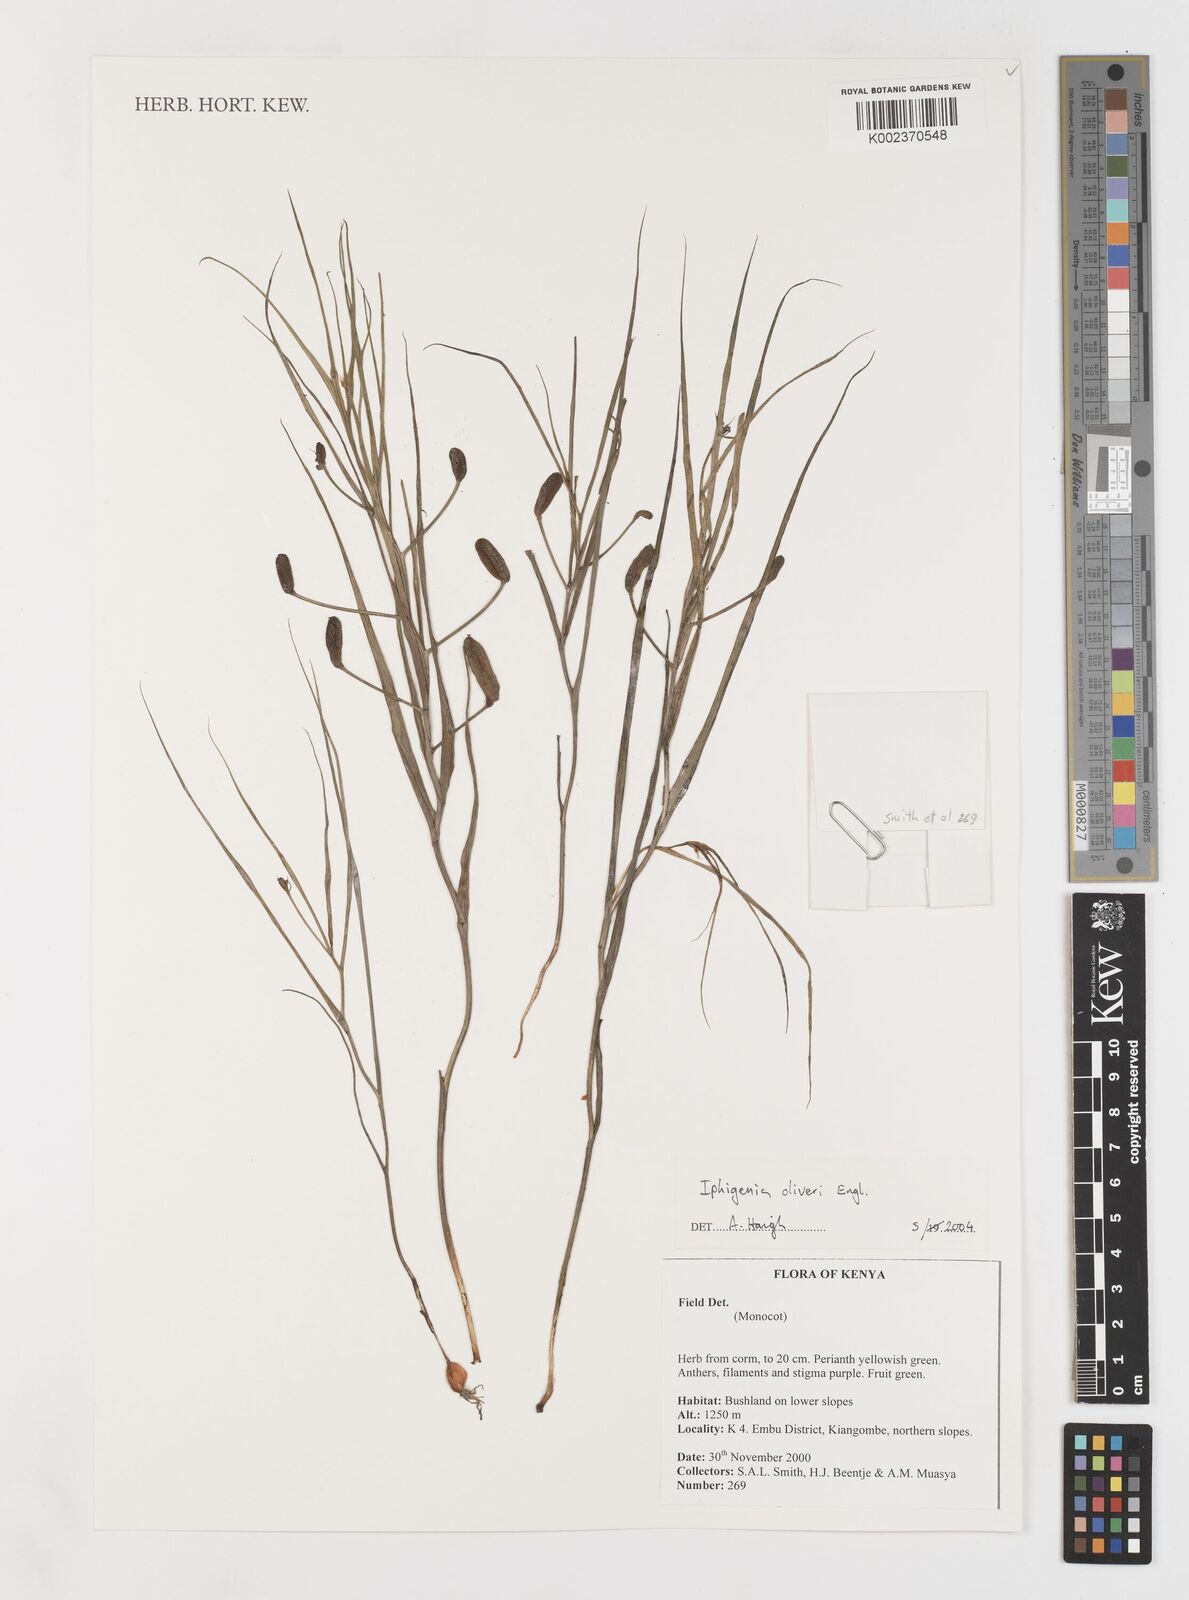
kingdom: Plantae
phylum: Tracheophyta
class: Liliopsida
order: Liliales
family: Colchicaceae
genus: Iphigenia
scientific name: Iphigenia oliveri
